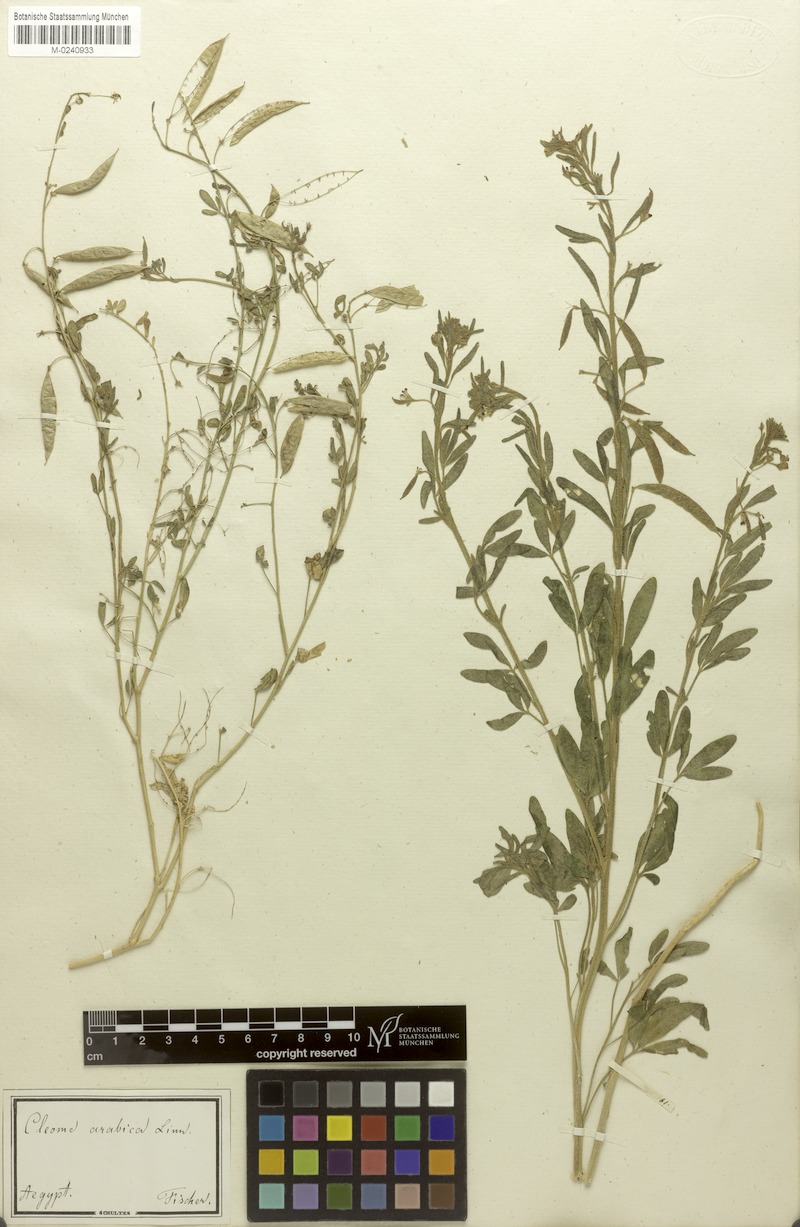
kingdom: Plantae
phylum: Tracheophyta
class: Magnoliopsida
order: Brassicales
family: Cleomaceae
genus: Cleome
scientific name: Cleome arabica
